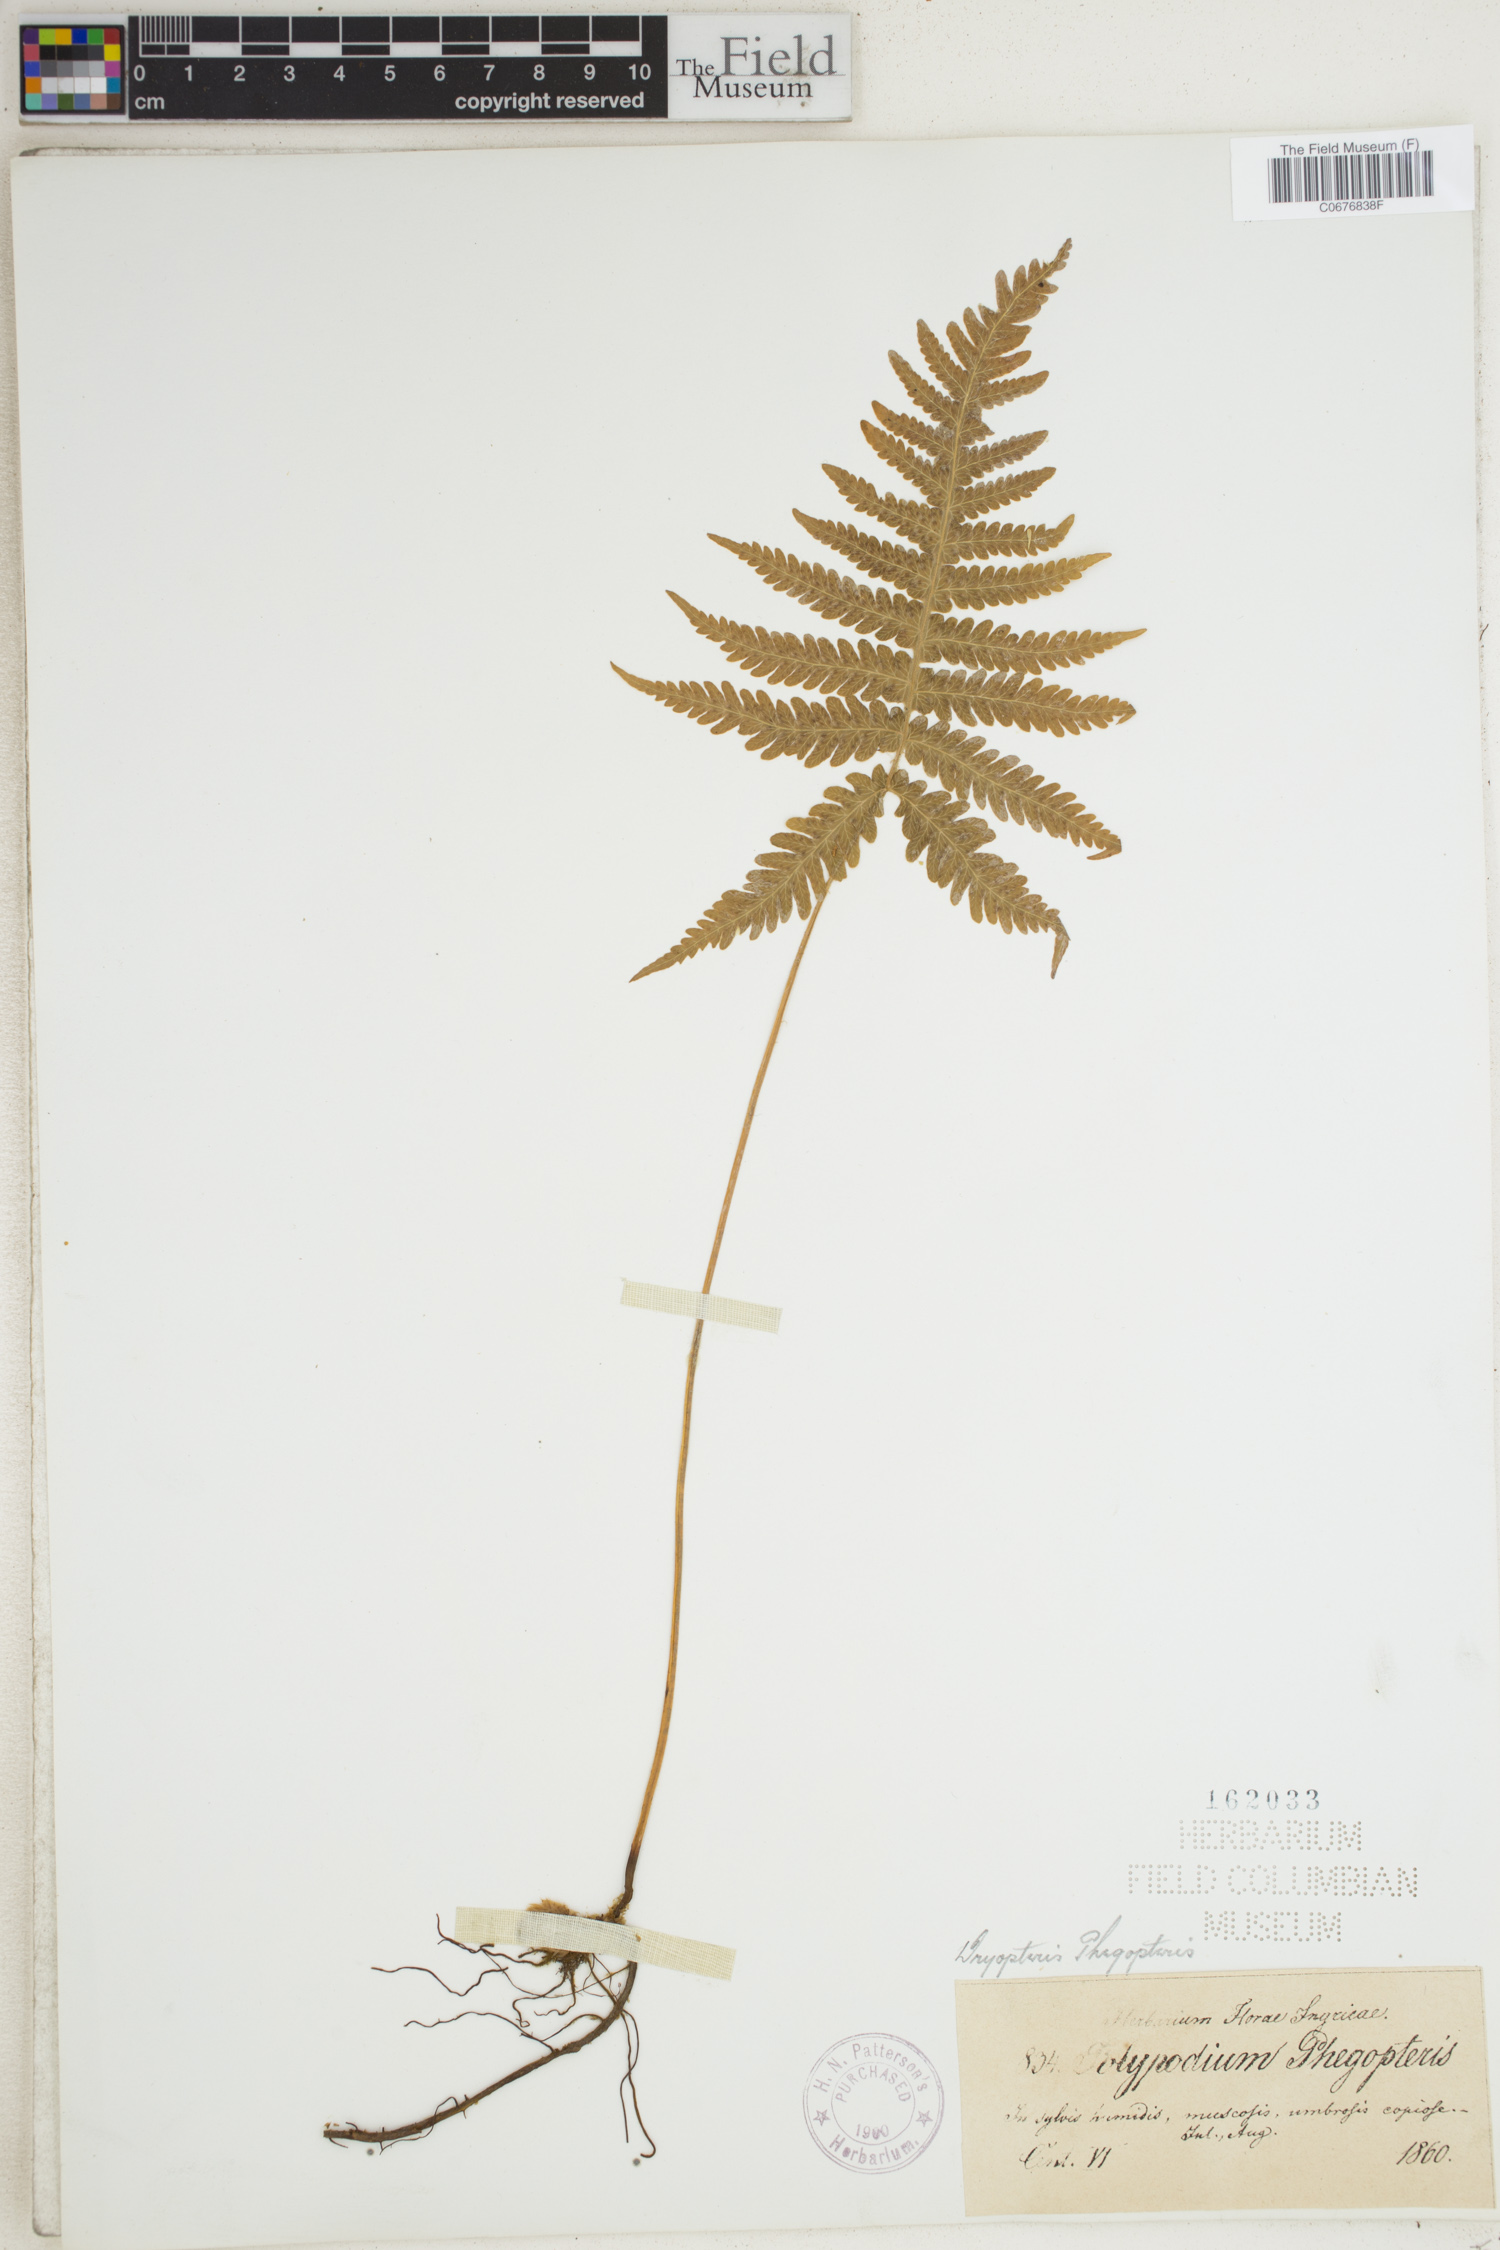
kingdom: Plantae
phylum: Tracheophyta
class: Polypodiopsida
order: Polypodiales
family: Thelypteridaceae
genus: Phegopteris
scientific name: Phegopteris connectilis
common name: Beech fern
